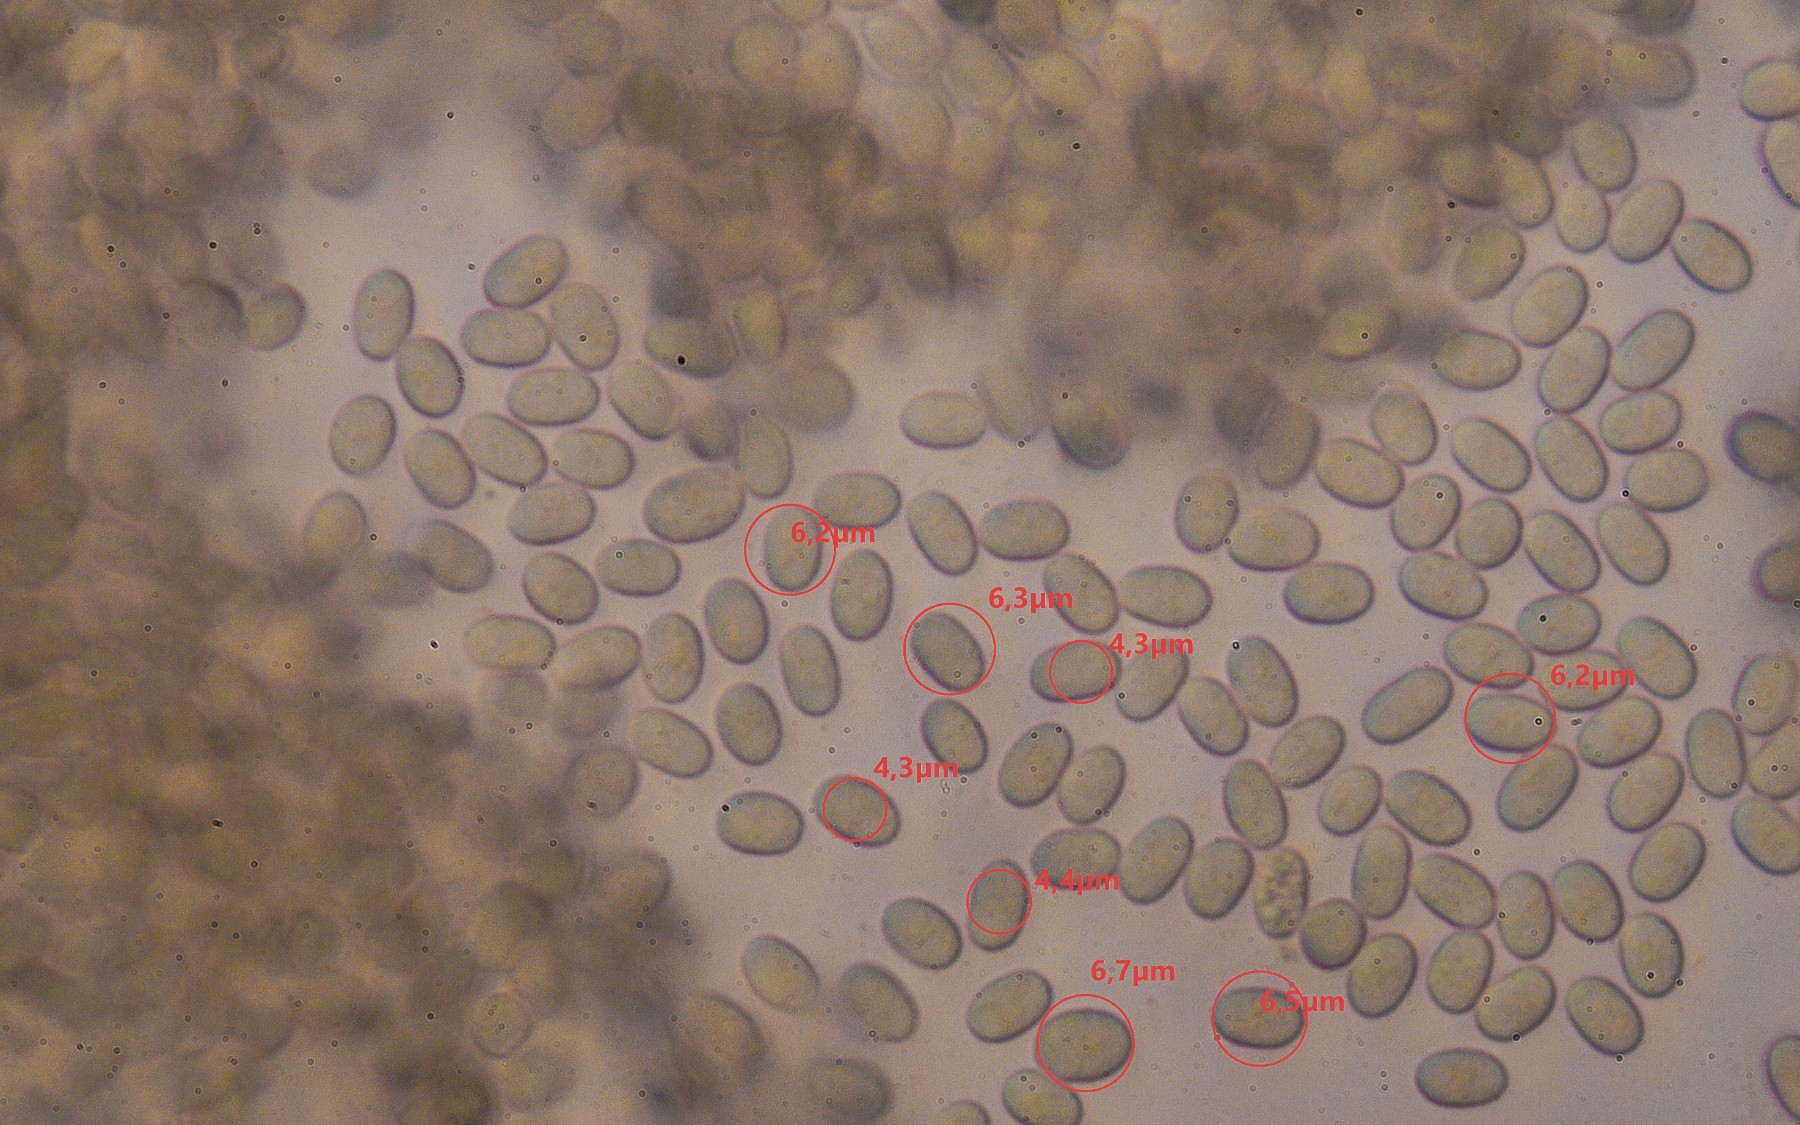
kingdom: Fungi
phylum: Mucoromycota
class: Mucoromycetes
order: Mucorales
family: Pilobolaceae
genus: Pilobolus
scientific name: Pilobolus
